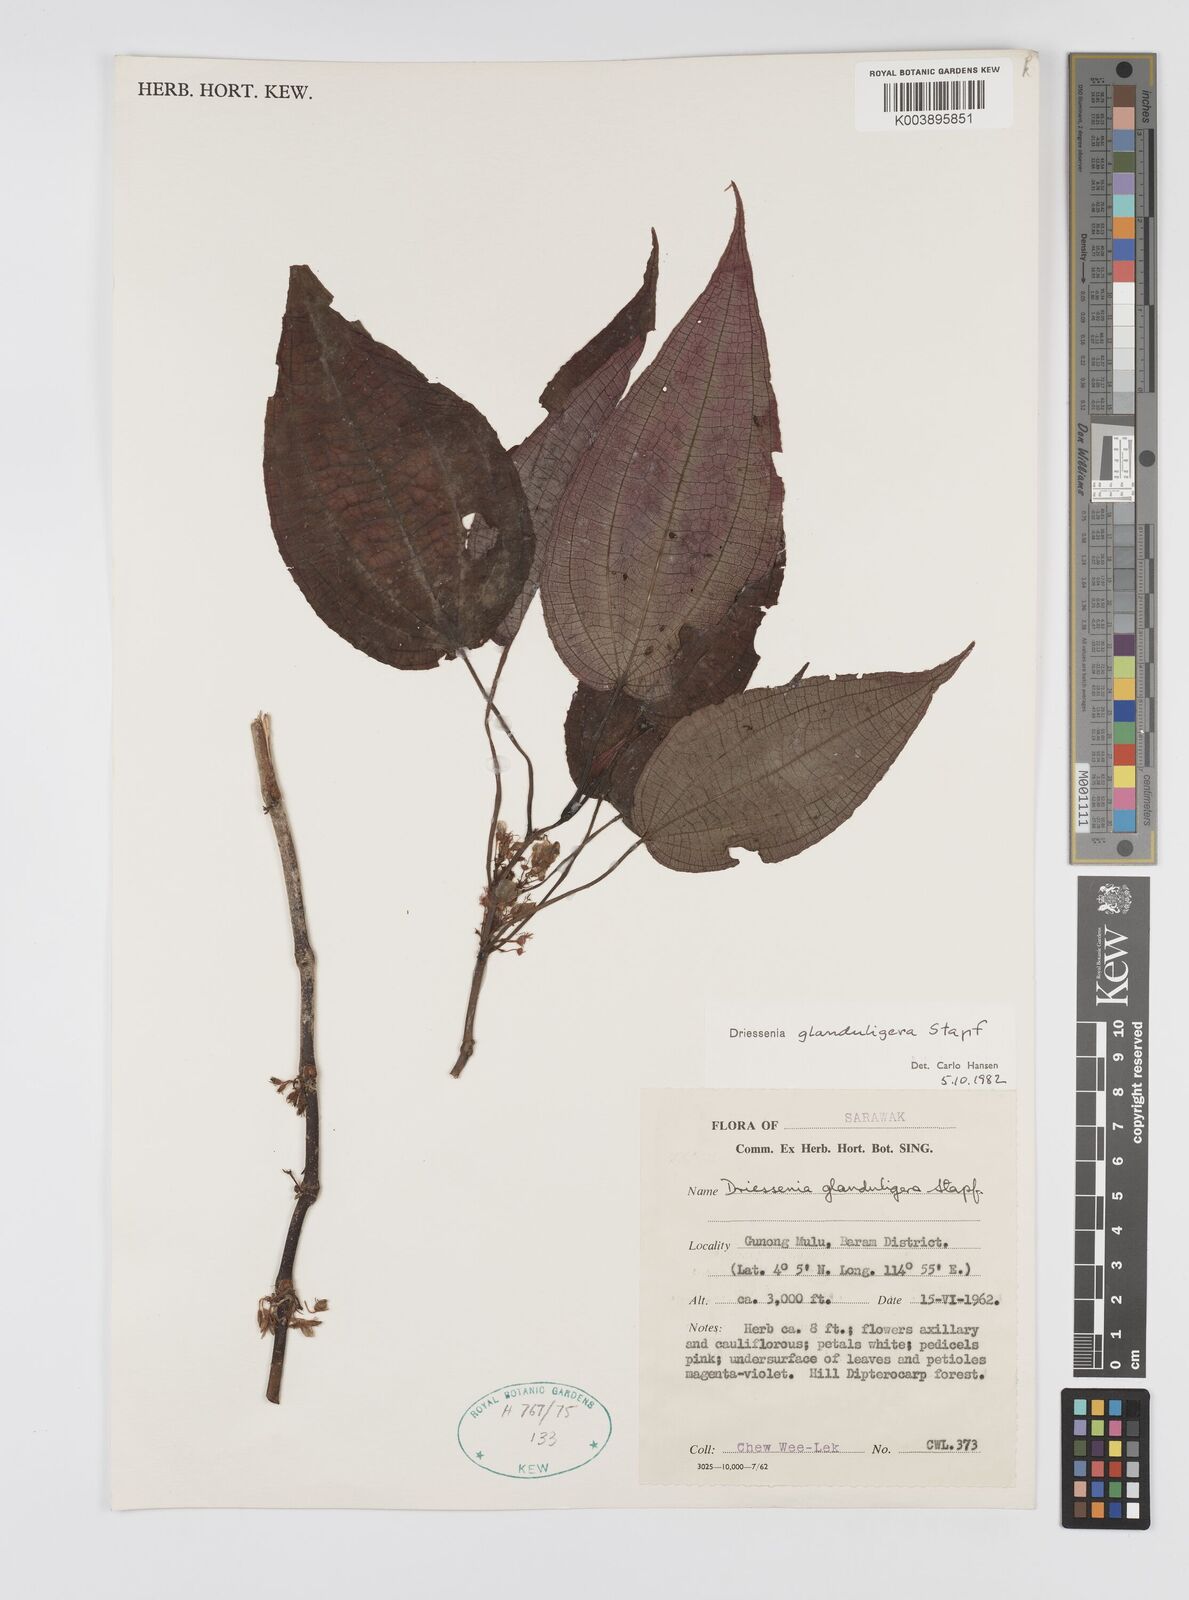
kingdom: Plantae
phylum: Tracheophyta
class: Magnoliopsida
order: Myrtales
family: Melastomataceae
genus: Driessenia
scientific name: Driessenia glanduligera
